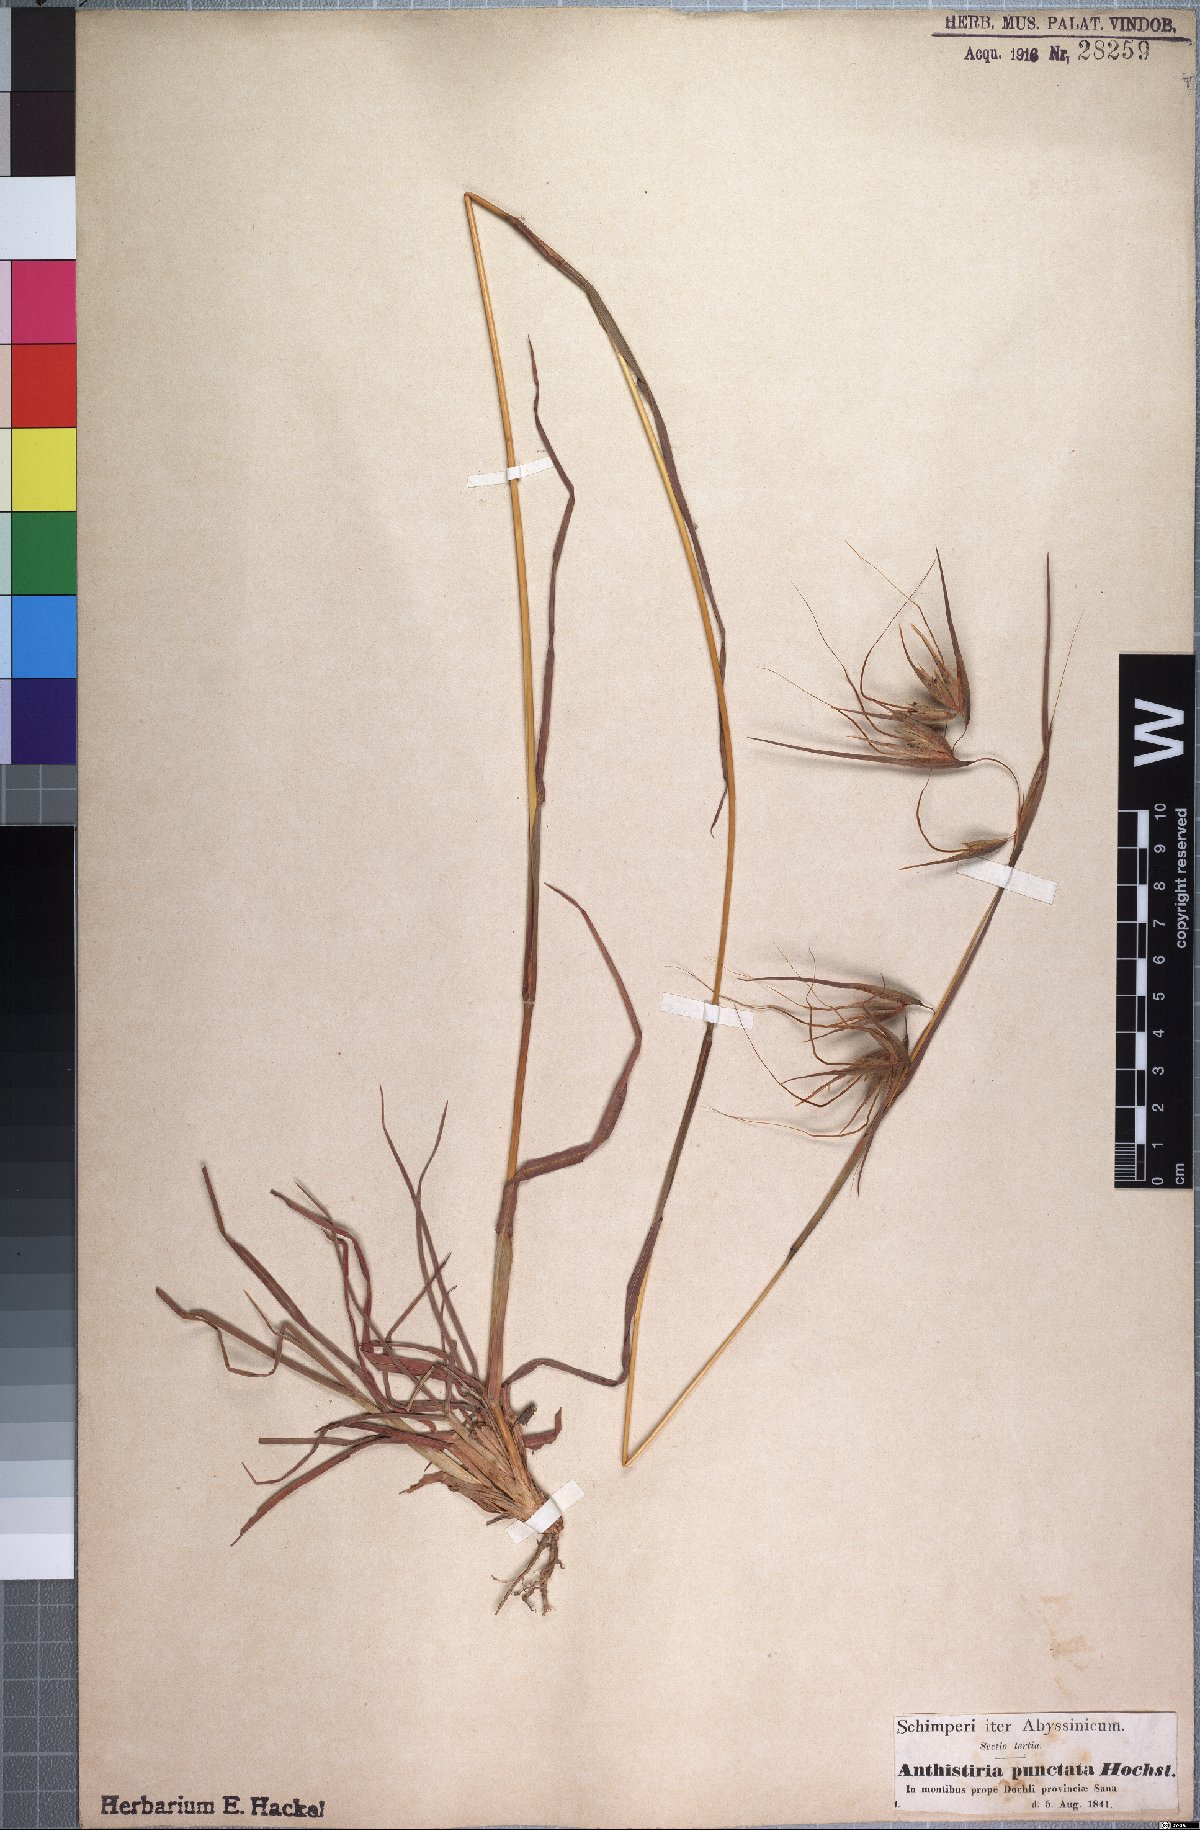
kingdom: Plantae
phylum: Tracheophyta
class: Liliopsida
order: Poales
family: Poaceae
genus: Themeda
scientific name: Themeda triandra
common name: Kangaroo grass
